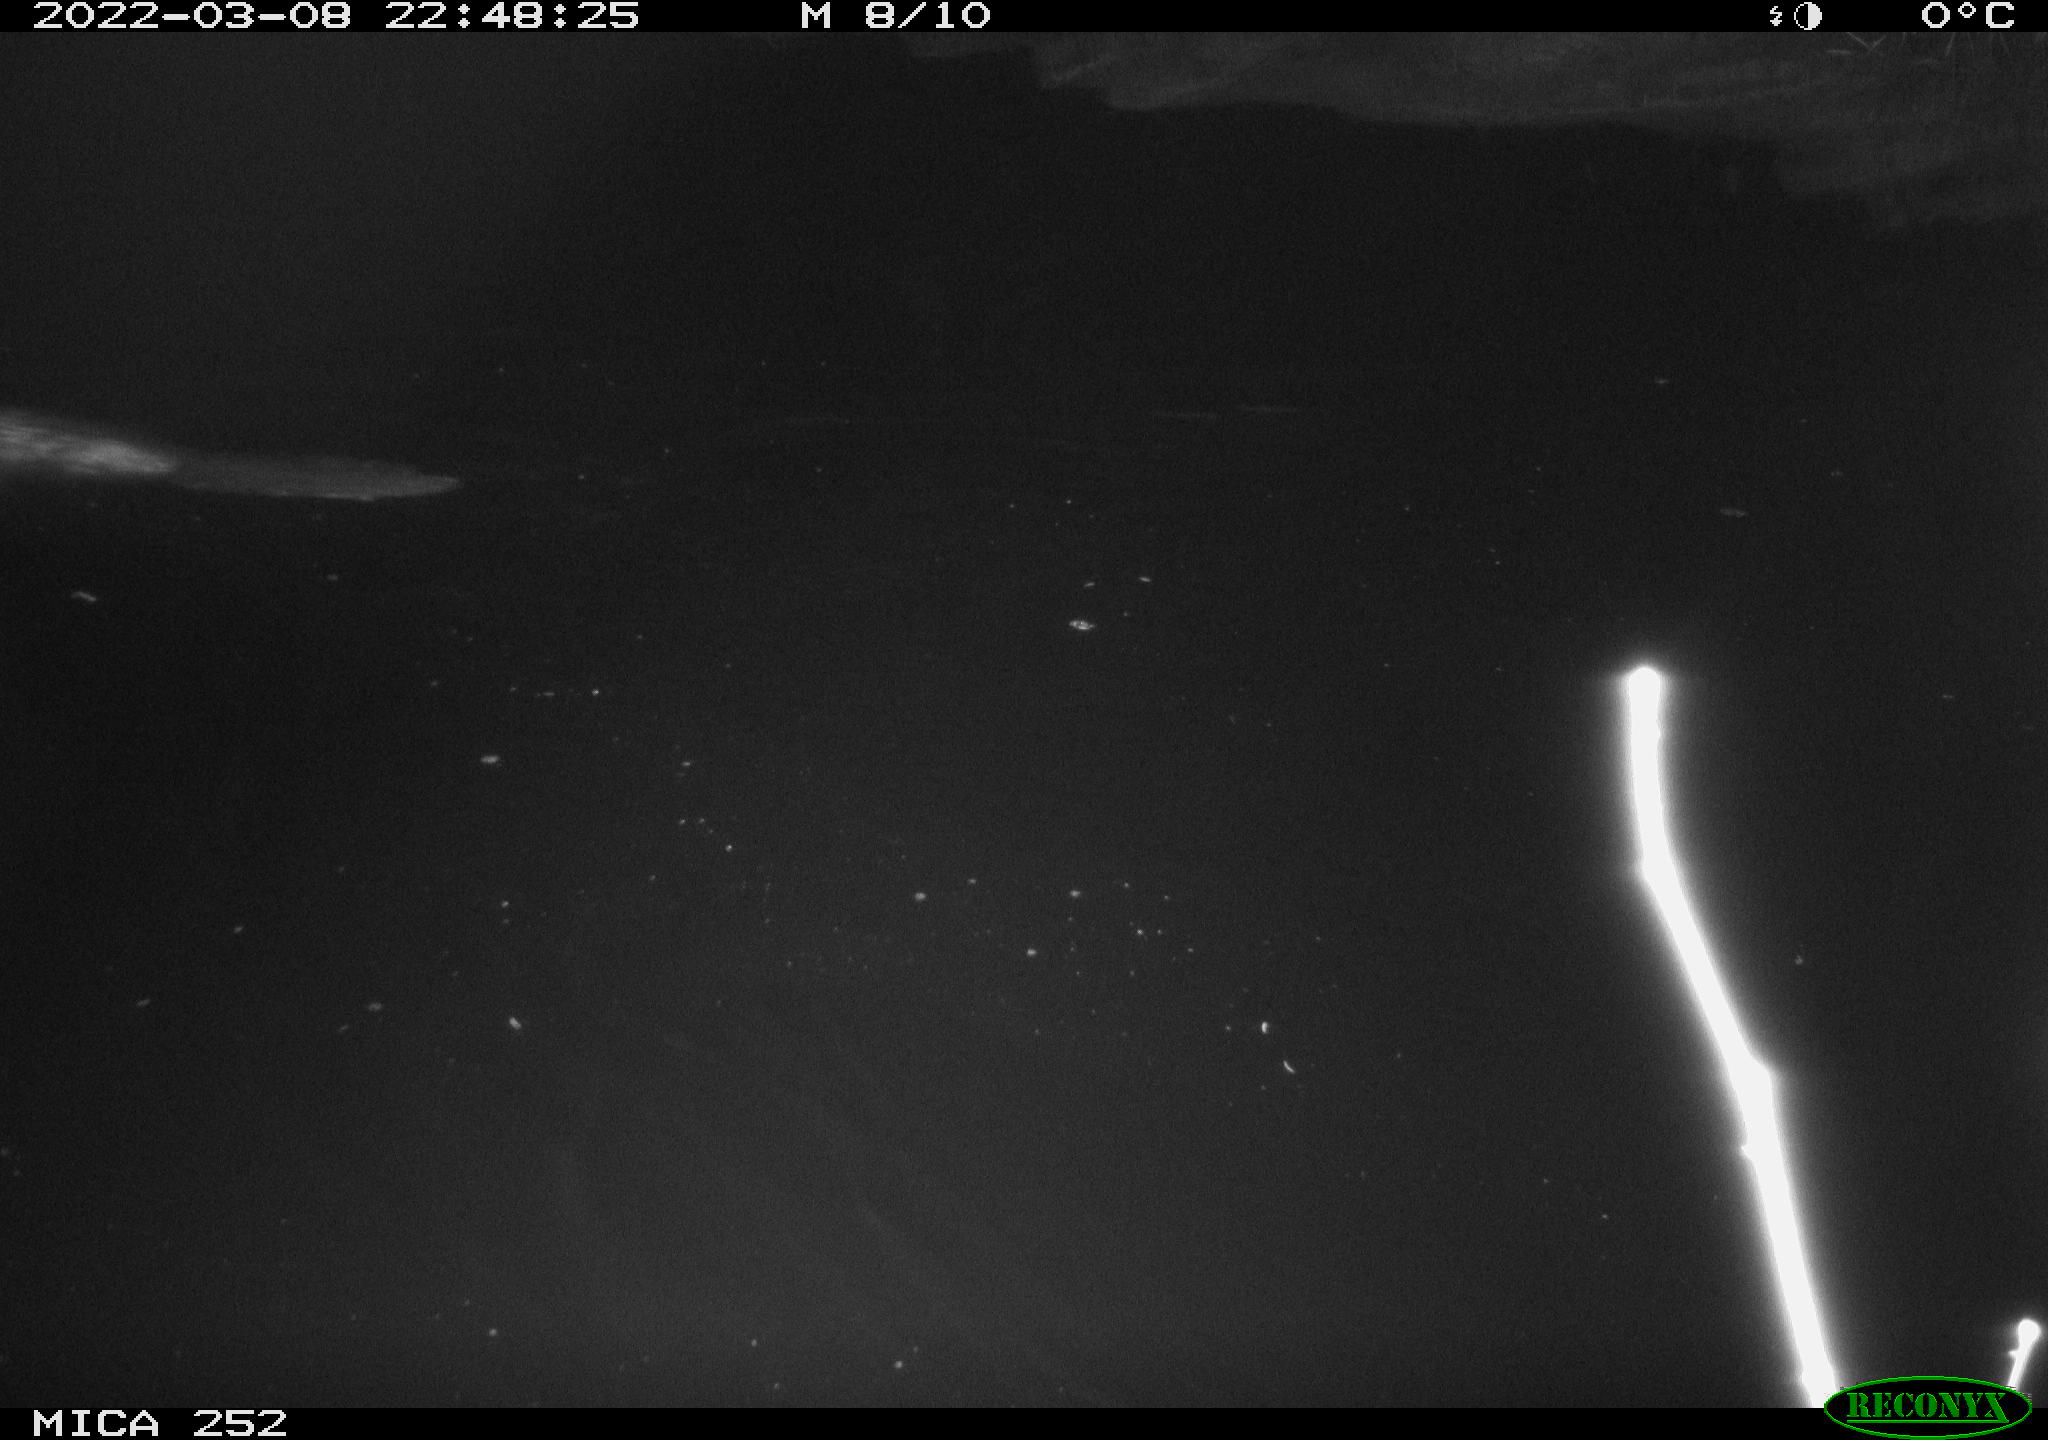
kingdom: Animalia
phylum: Chordata
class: Mammalia
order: Rodentia
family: Castoridae
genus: Castor
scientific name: Castor fiber
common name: Eurasian beaver
